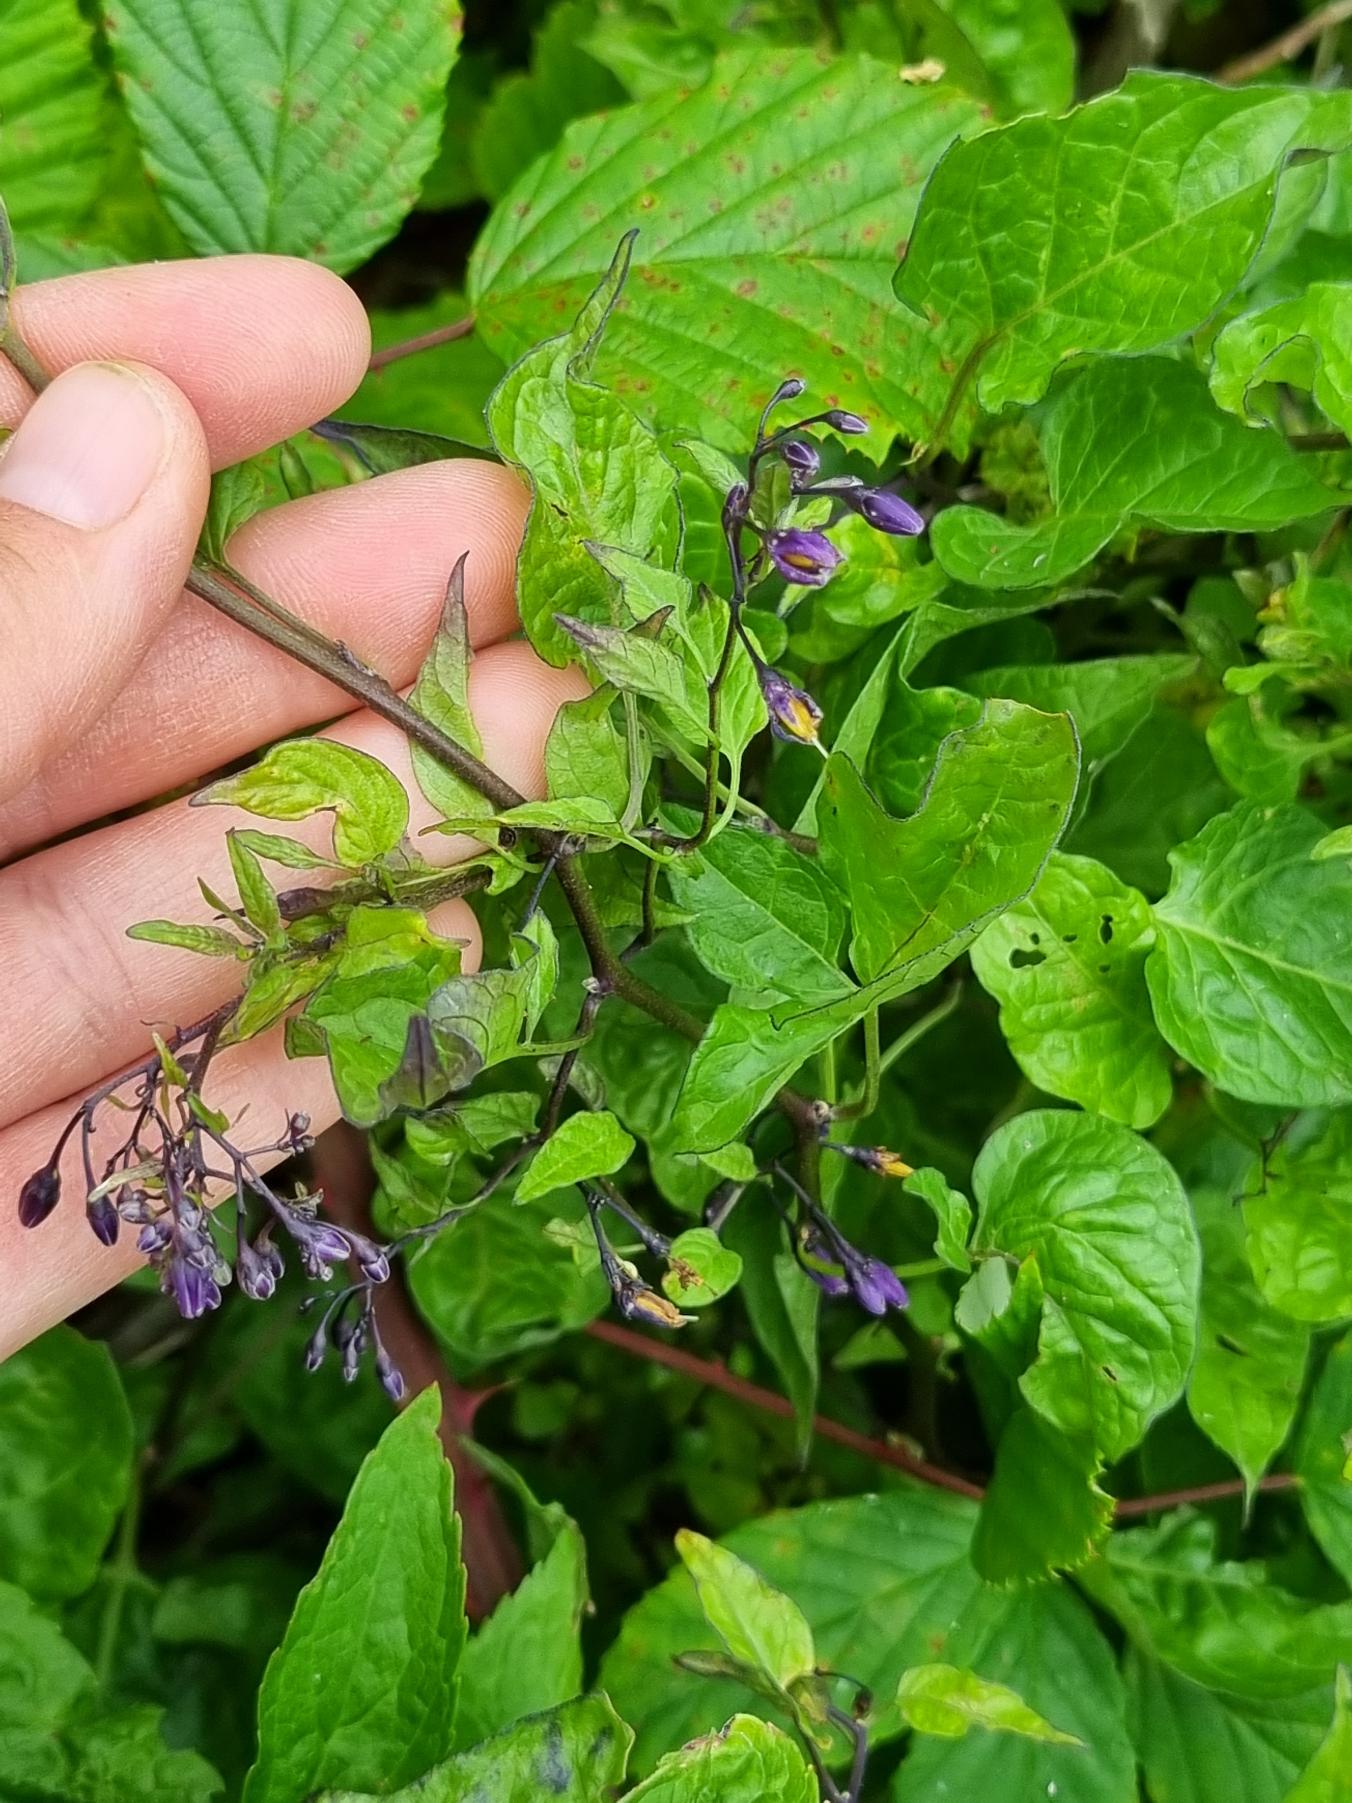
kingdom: Plantae
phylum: Tracheophyta
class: Magnoliopsida
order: Solanales
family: Solanaceae
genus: Solanum
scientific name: Solanum dulcamara
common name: Bittersød natskygge
